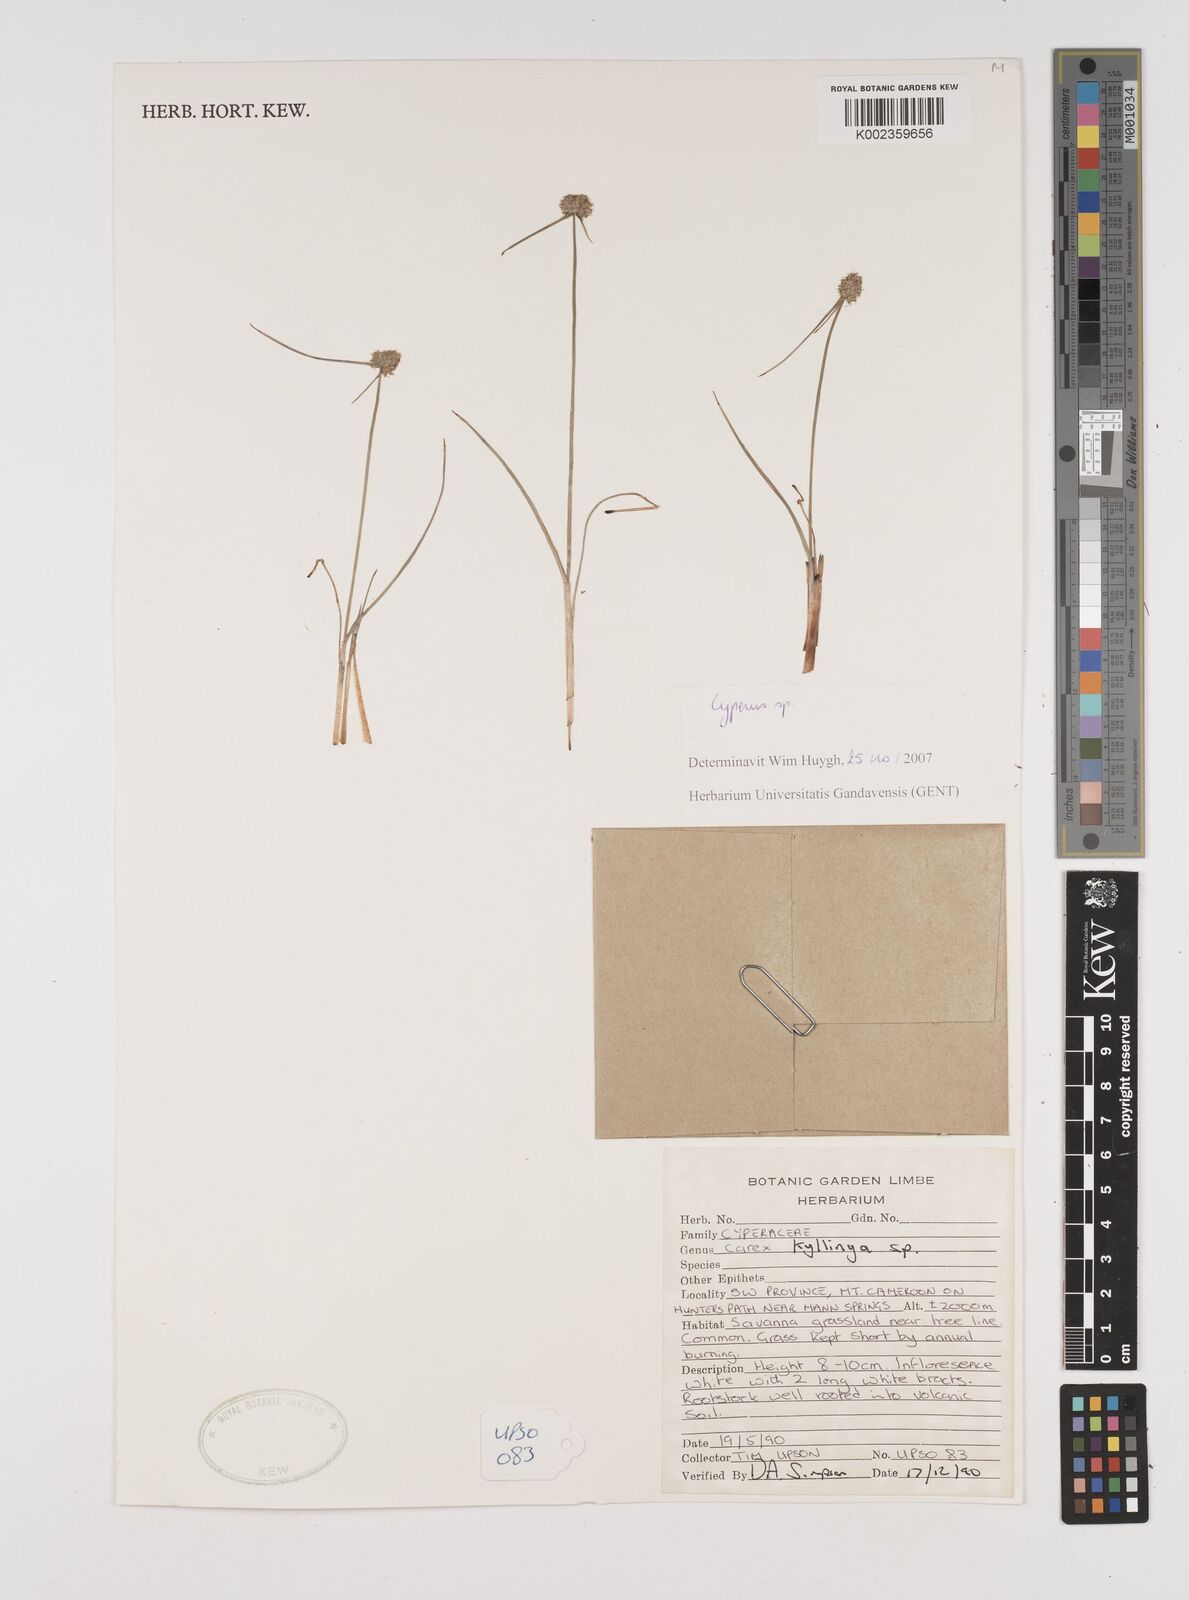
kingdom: Plantae
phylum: Tracheophyta
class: Liliopsida
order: Poales
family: Cyperaceae
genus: Cyperus
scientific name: Cyperus
